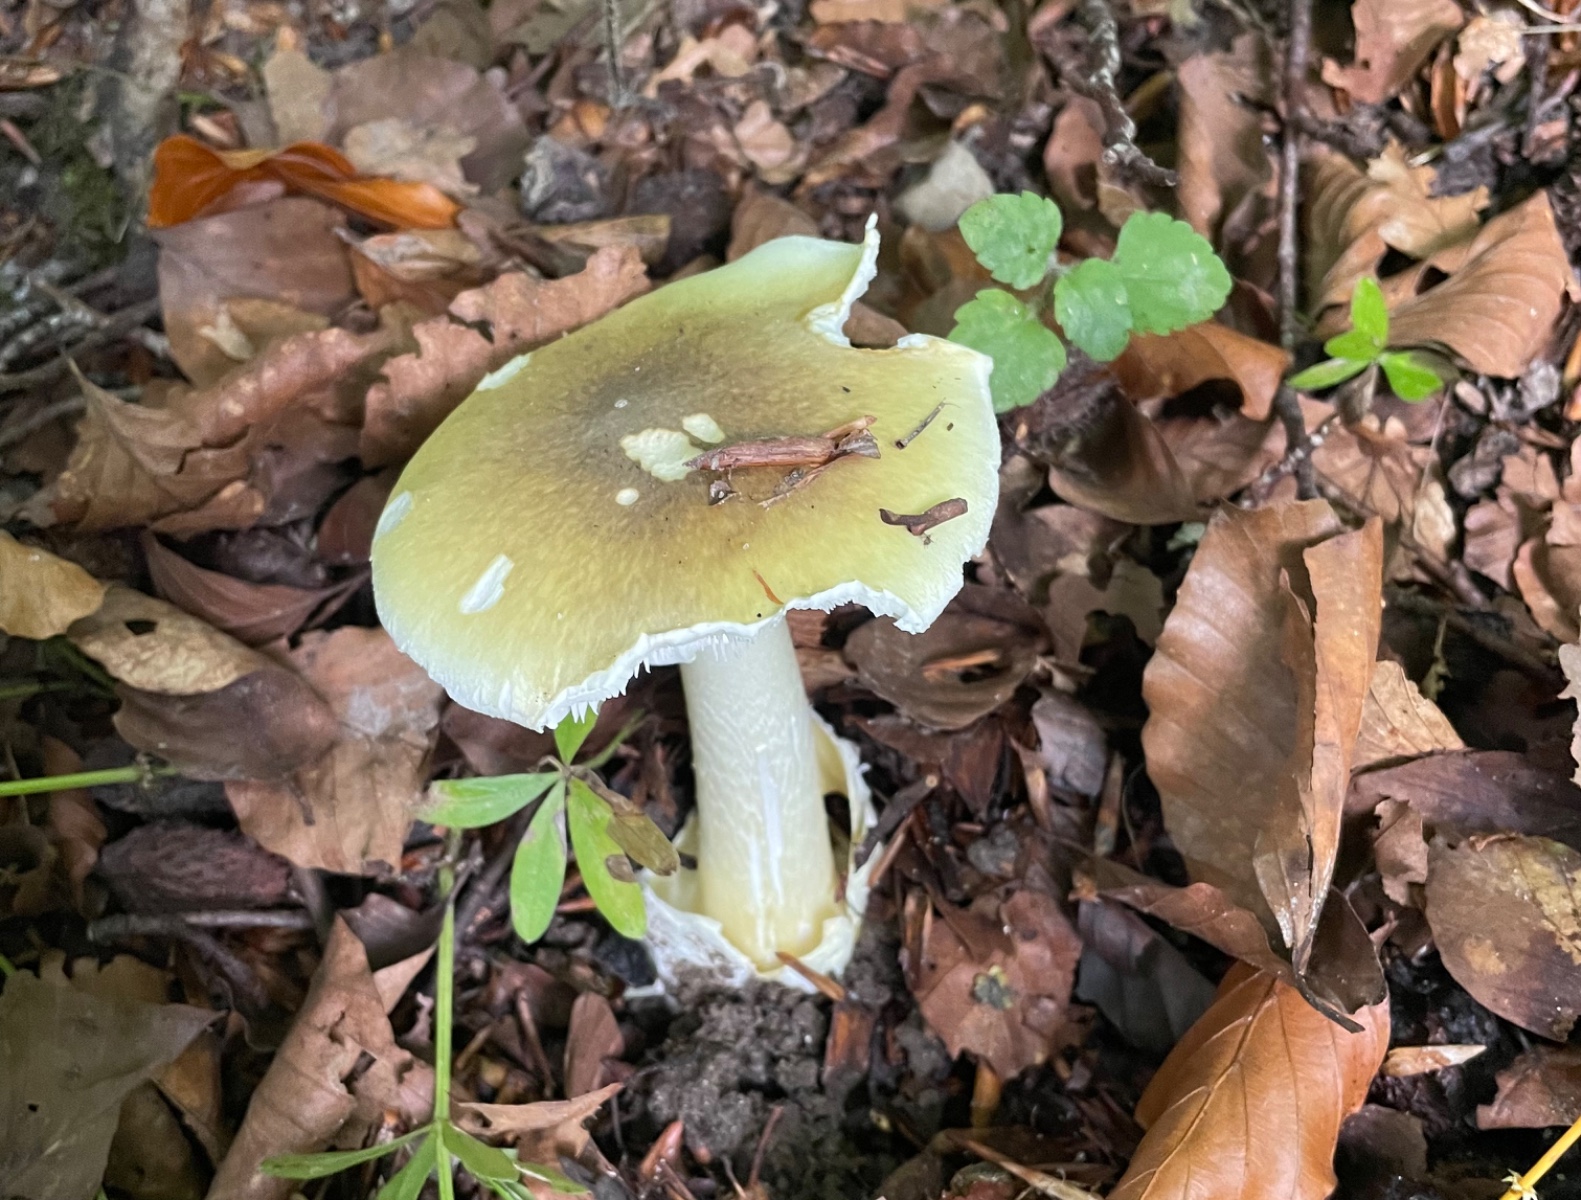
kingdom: Fungi
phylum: Basidiomycota
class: Agaricomycetes
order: Agaricales
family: Amanitaceae
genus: Amanita
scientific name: Amanita phalloides
